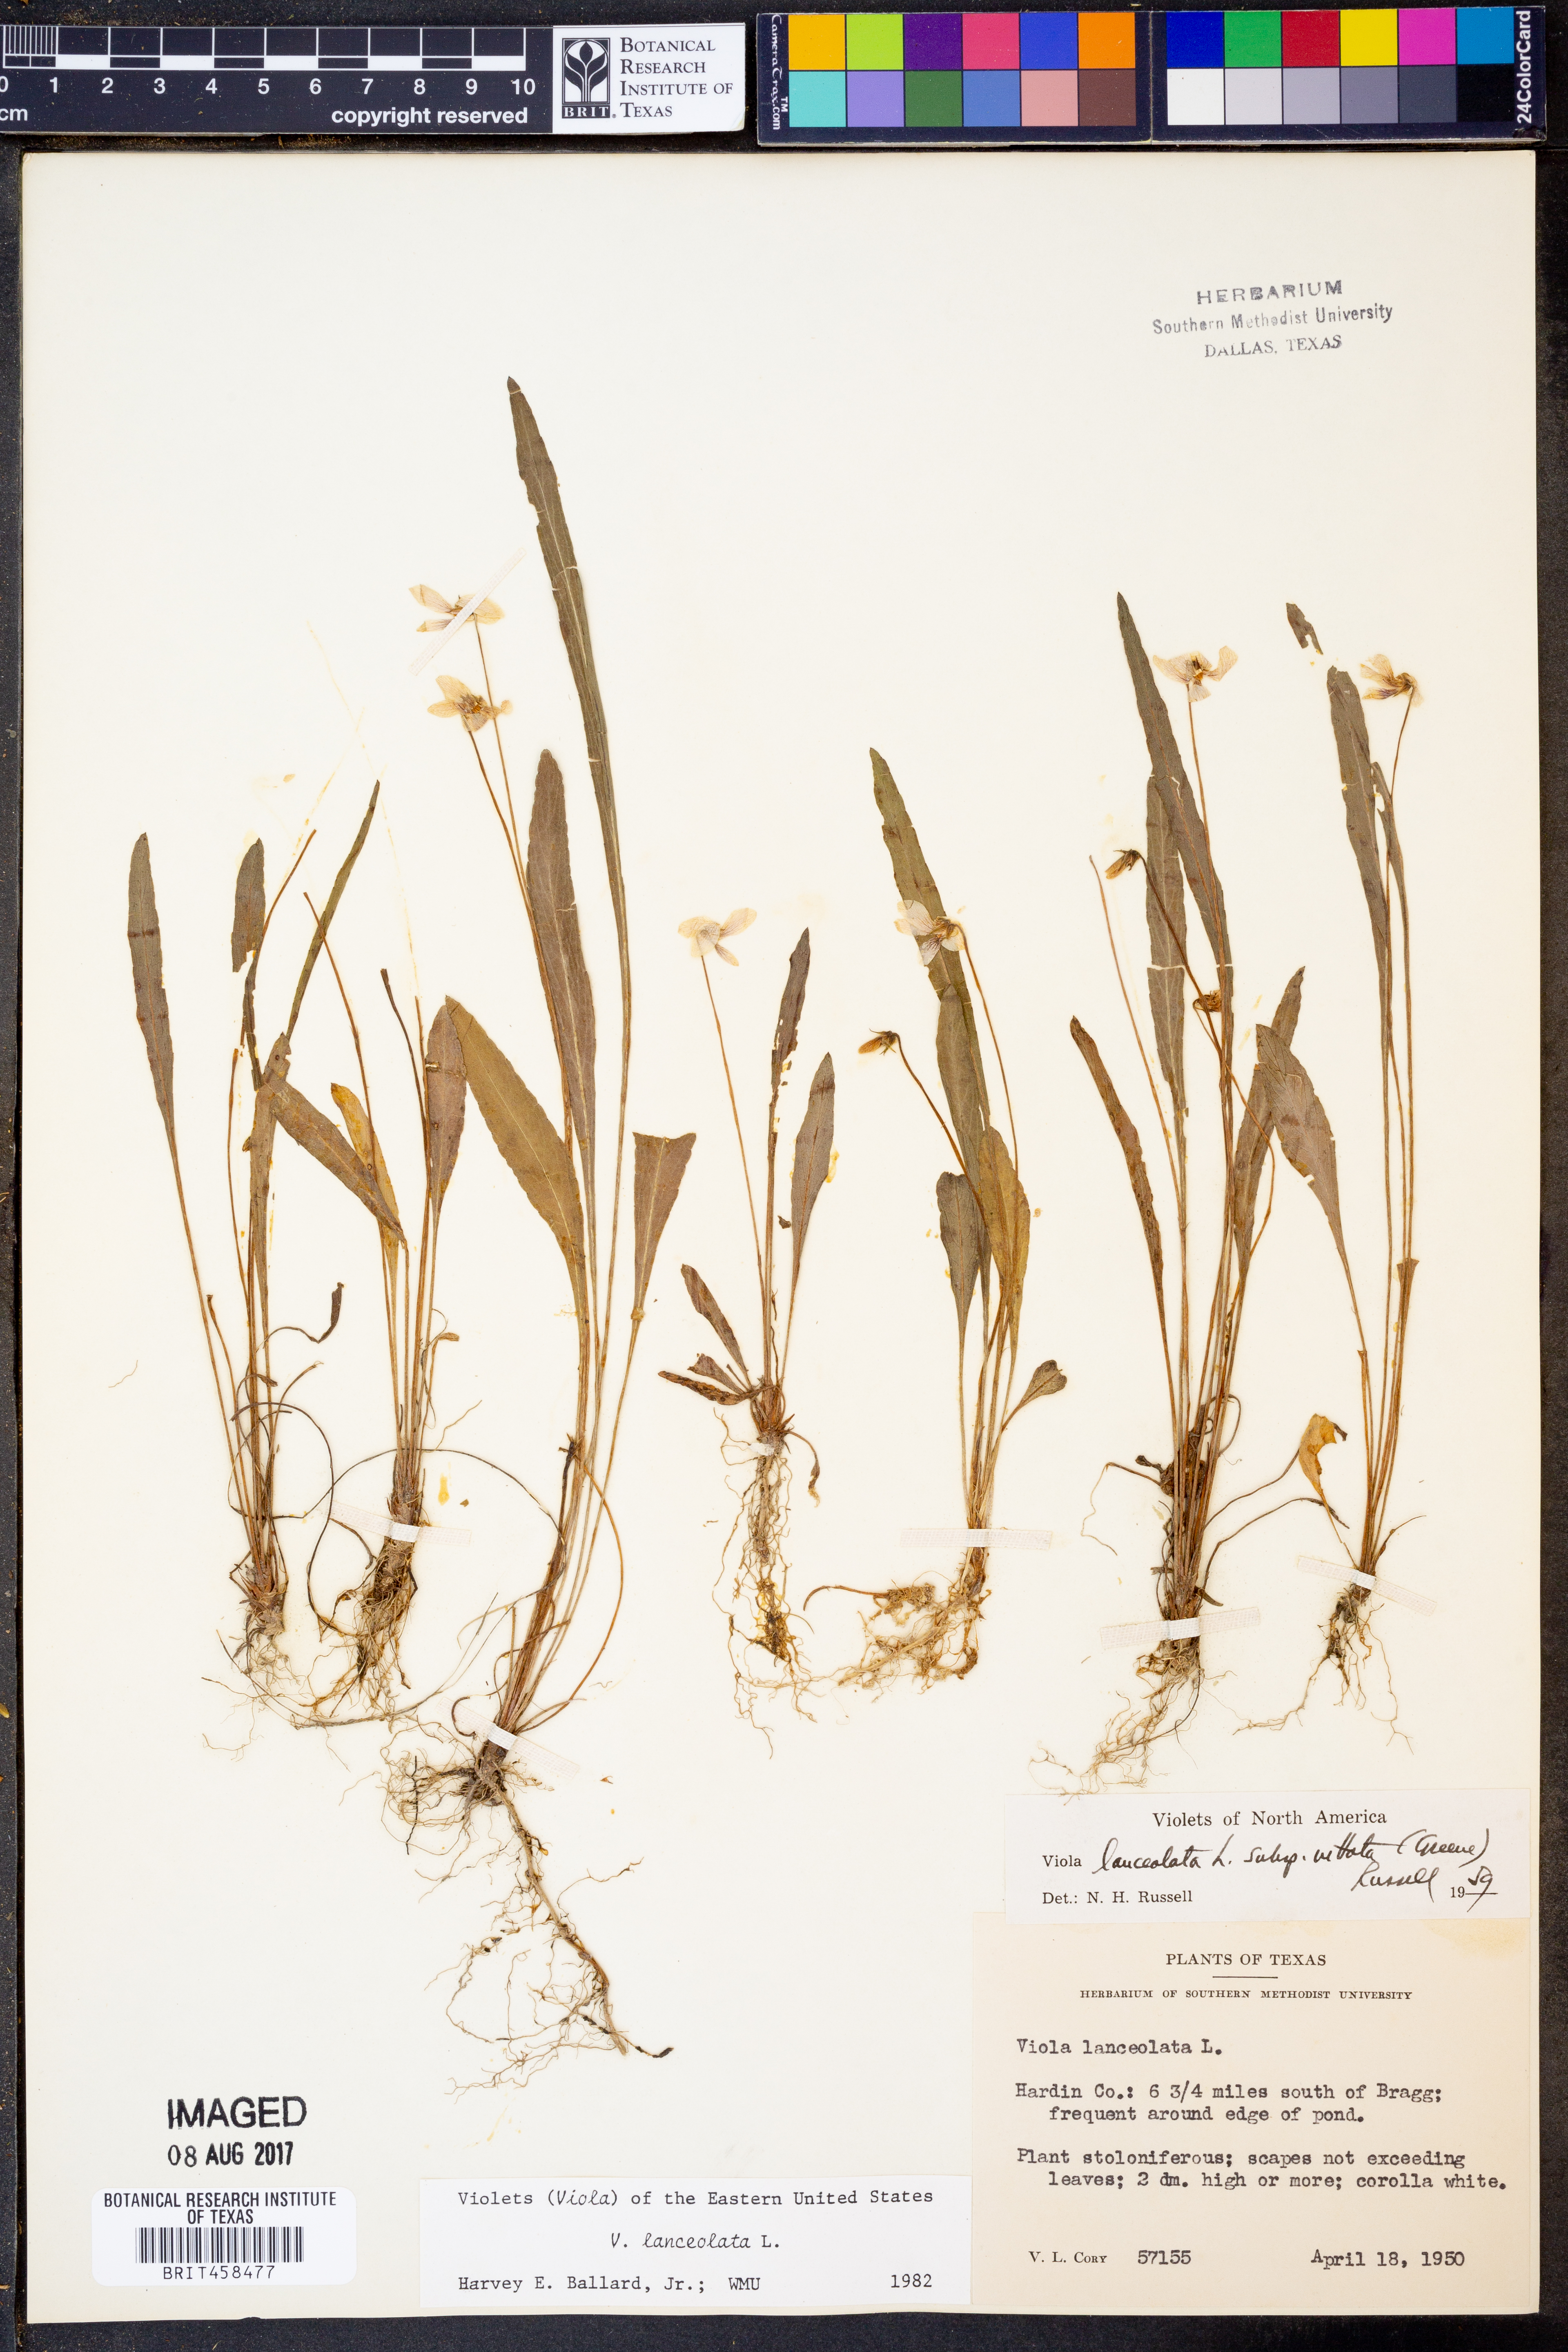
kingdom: Plantae
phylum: Tracheophyta
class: Magnoliopsida
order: Malpighiales
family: Violaceae
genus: Viola
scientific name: Viola lanceolata
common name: Bog white violet
